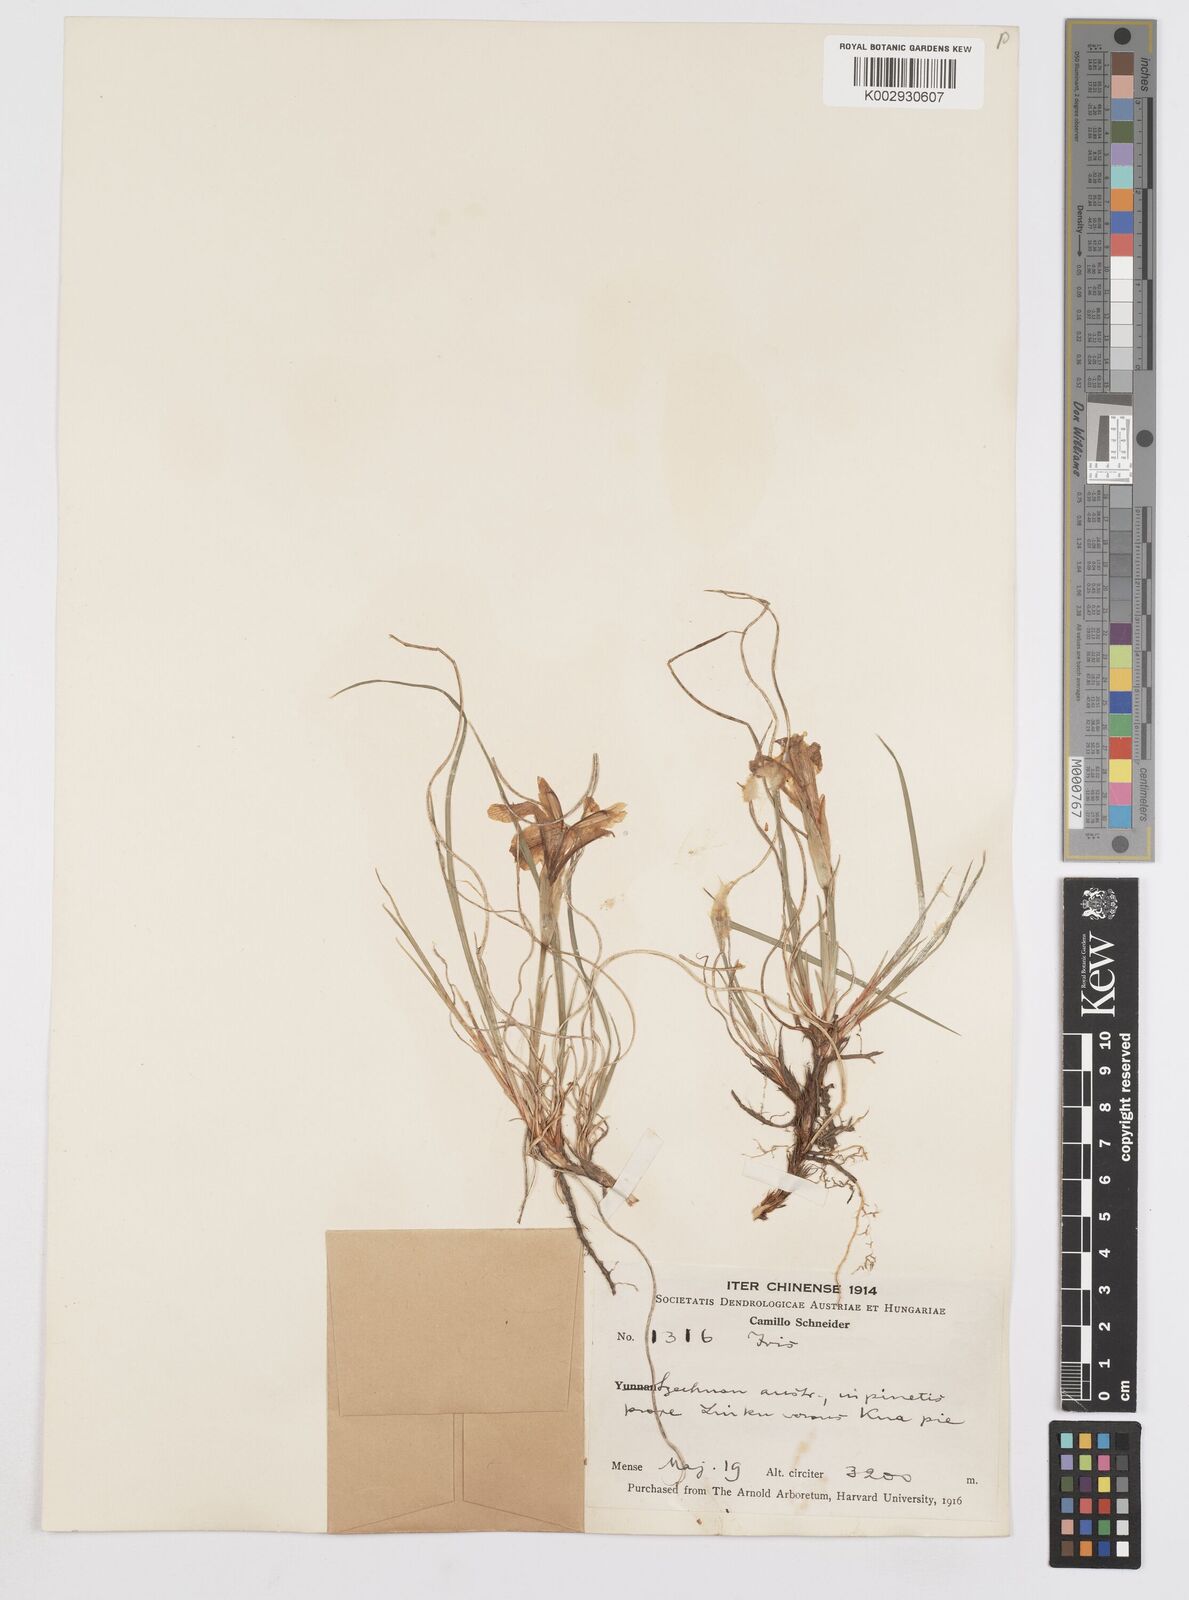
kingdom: Plantae
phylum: Tracheophyta
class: Liliopsida
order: Asparagales
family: Iridaceae
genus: Iris
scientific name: Iris ruthenica
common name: Purple-bract iris
